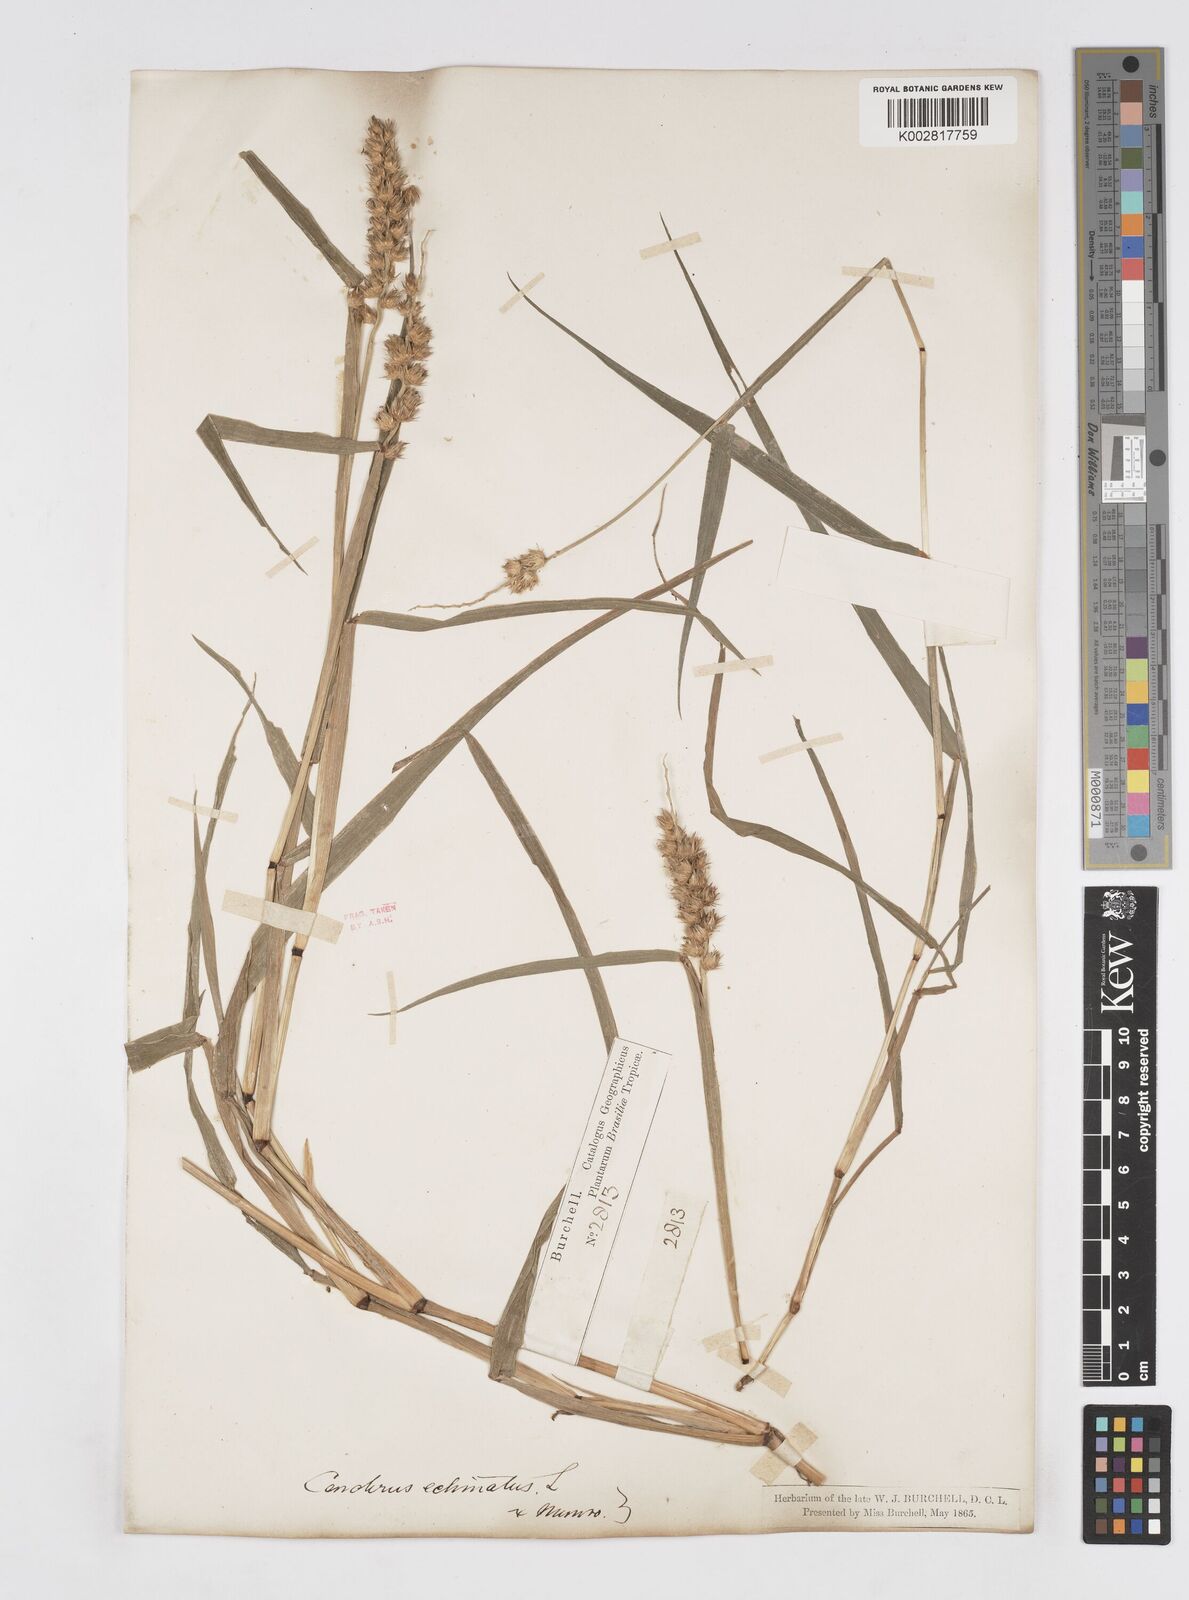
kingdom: Plantae
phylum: Tracheophyta
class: Liliopsida
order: Poales
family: Poaceae
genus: Cenchrus
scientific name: Cenchrus
